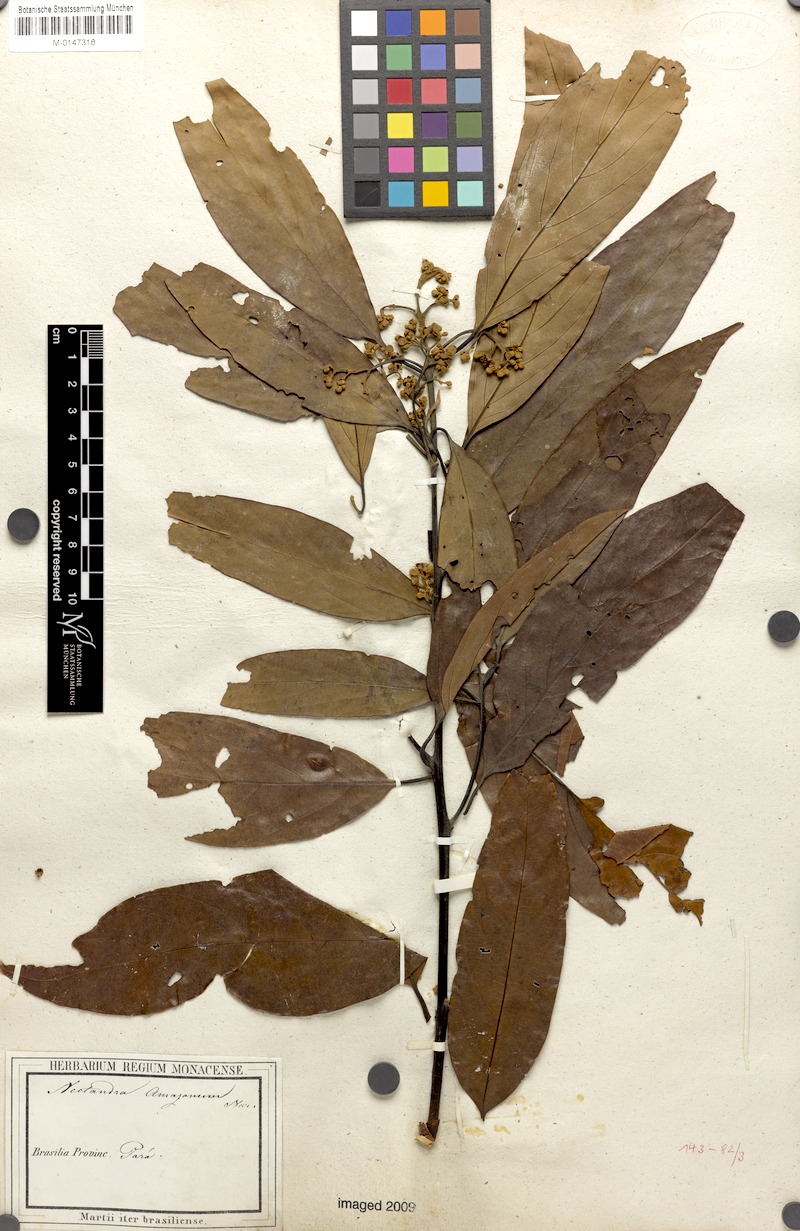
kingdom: Plantae
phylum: Tracheophyta
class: Magnoliopsida
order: Laurales
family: Lauraceae
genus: Nectandra
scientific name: Nectandra amazonum
